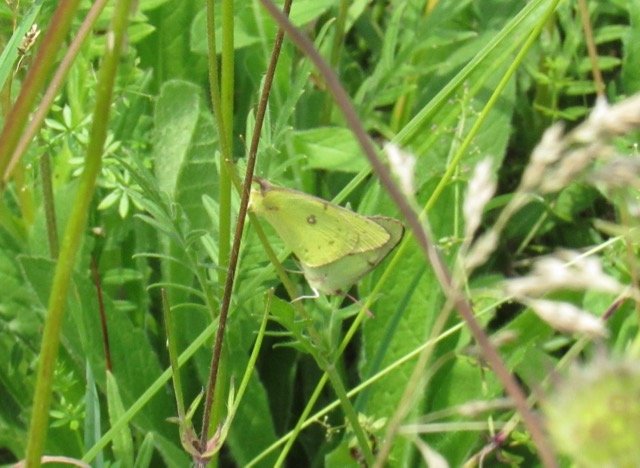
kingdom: Animalia
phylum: Arthropoda
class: Insecta
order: Lepidoptera
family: Pieridae
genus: Colias
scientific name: Colias philodice
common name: Clouded Sulphur
